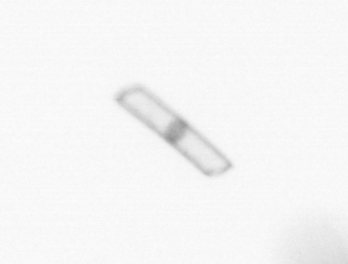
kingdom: Chromista
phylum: Ochrophyta
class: Bacillariophyceae
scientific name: Bacillariophyceae
